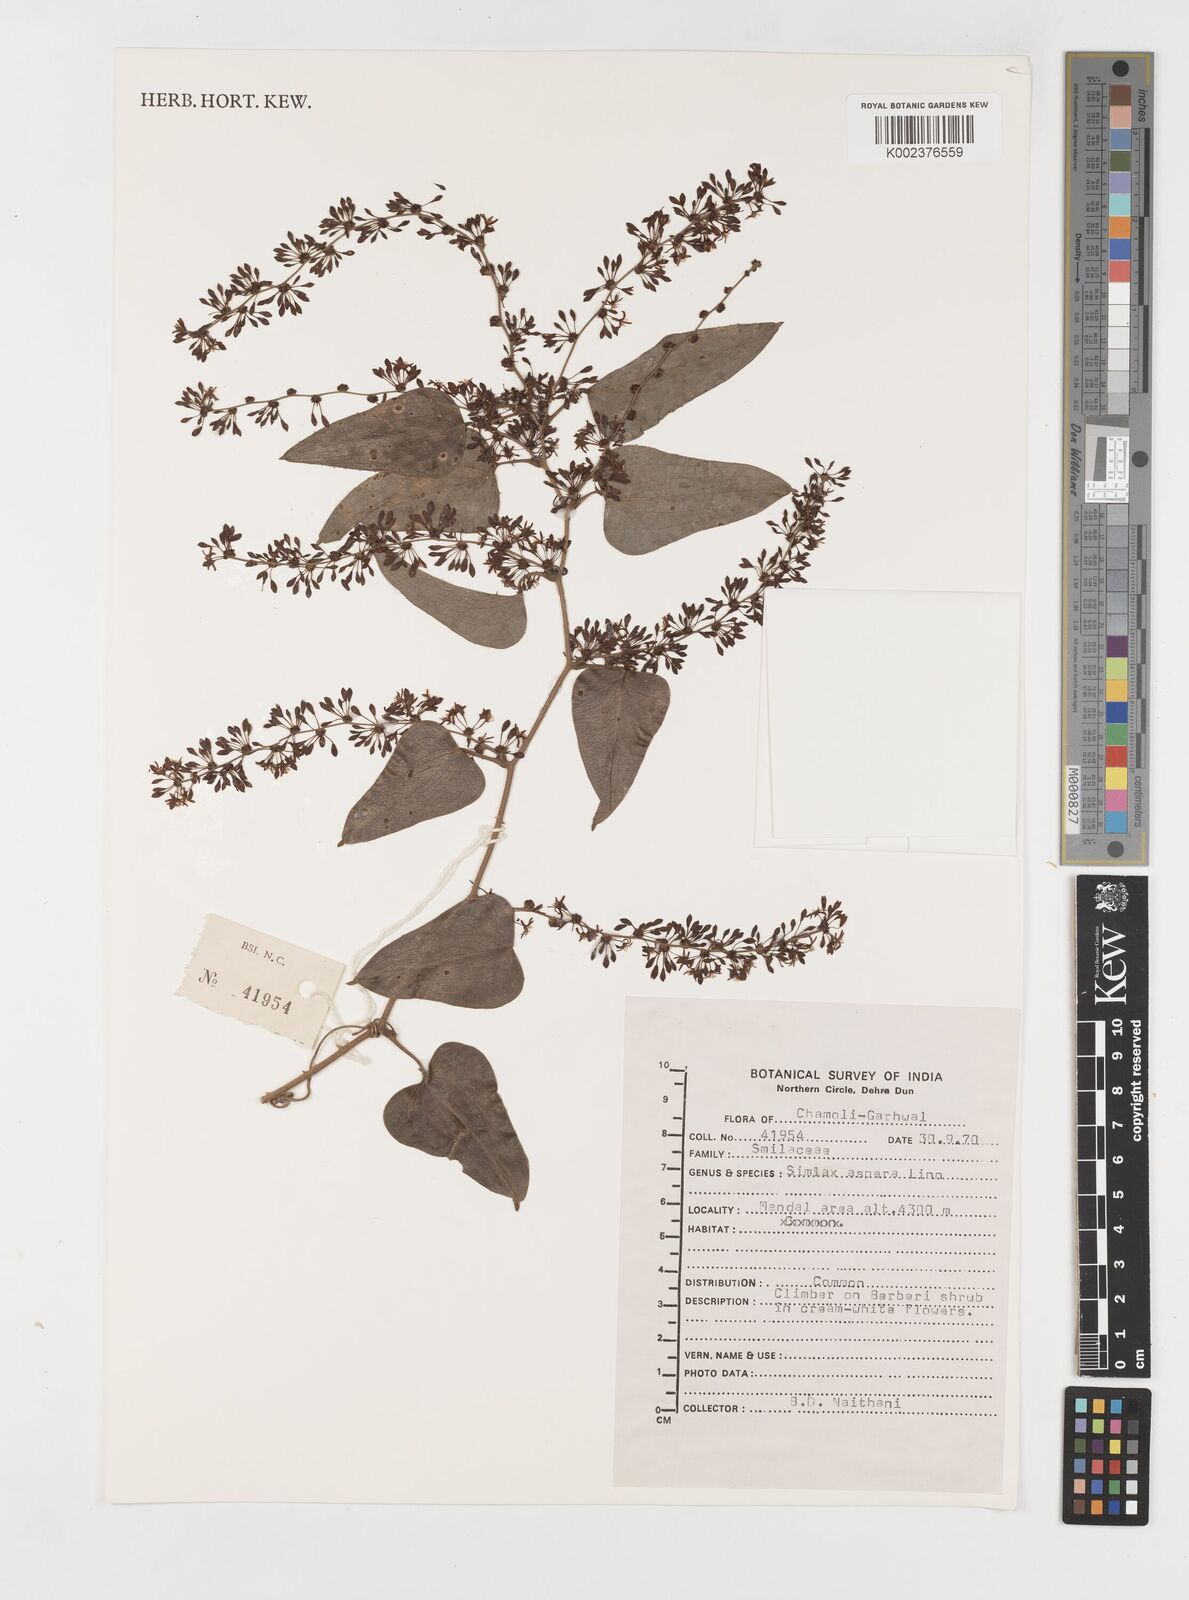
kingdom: Plantae
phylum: Tracheophyta
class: Liliopsida
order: Liliales
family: Smilacaceae
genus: Smilax
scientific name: Smilax aspera
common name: Common smilax
